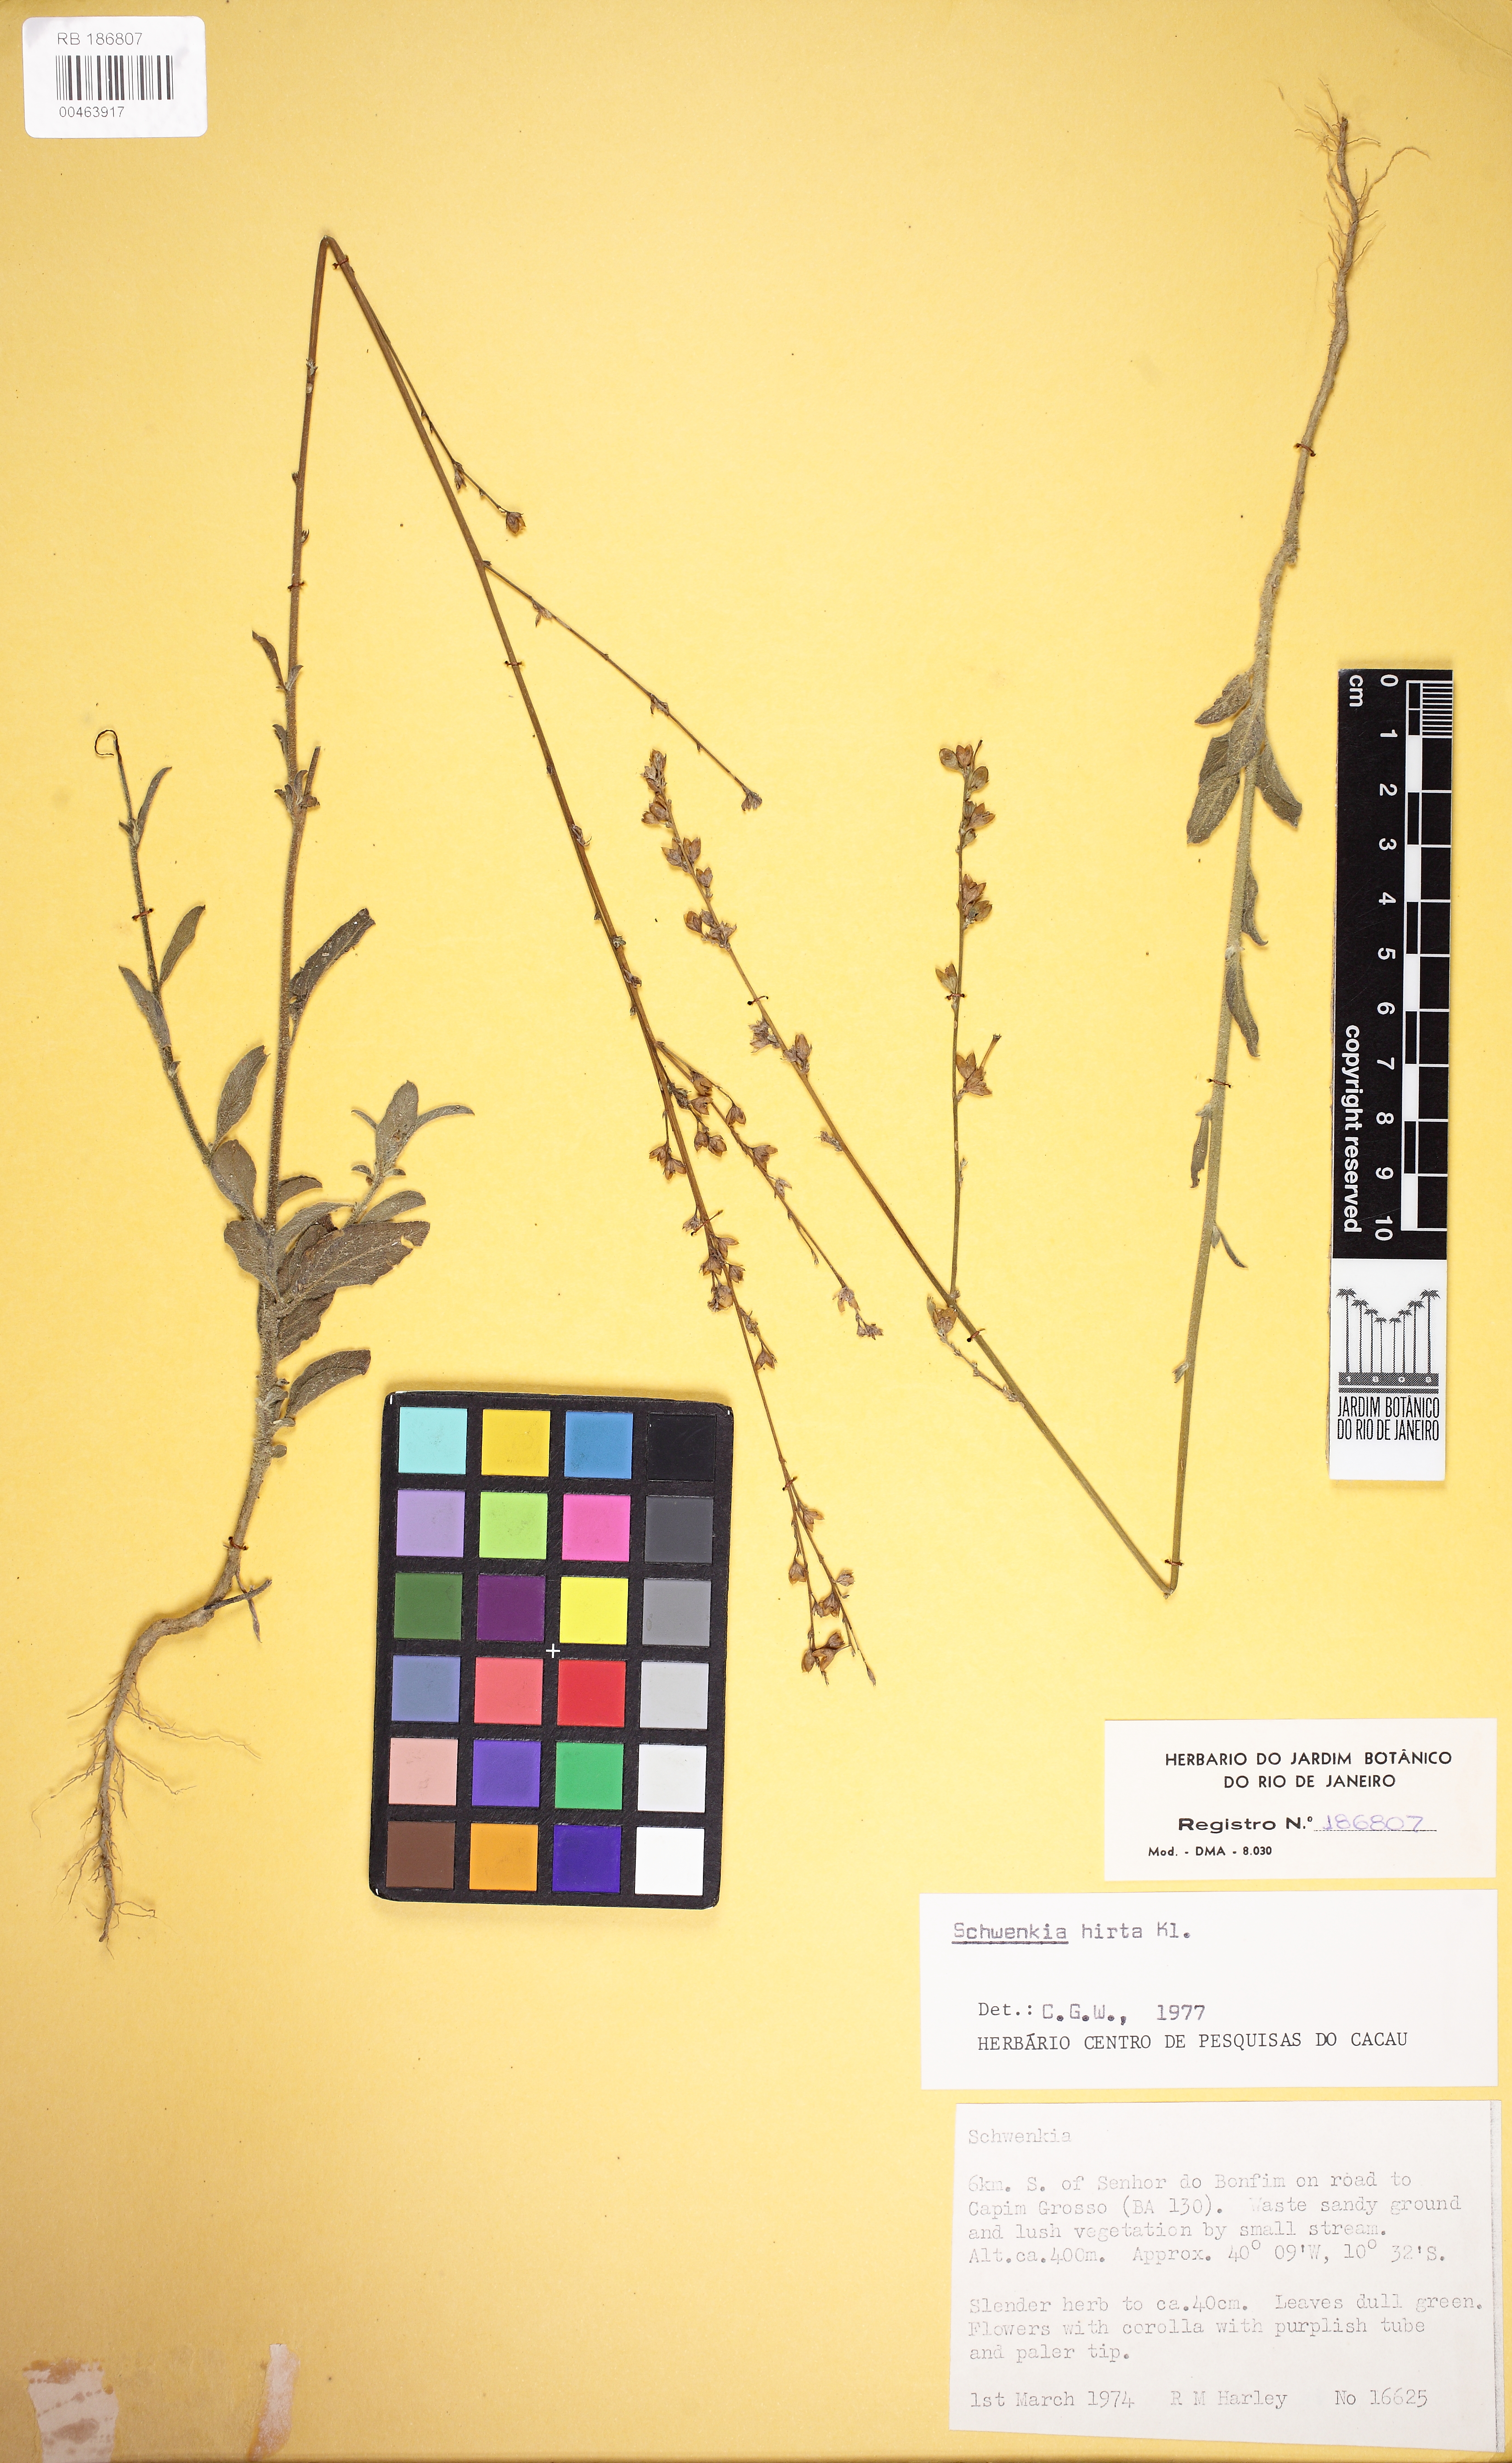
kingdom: Plantae
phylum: Tracheophyta
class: Magnoliopsida
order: Solanales
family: Solanaceae
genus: Schwenckia
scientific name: Schwenckia americana
